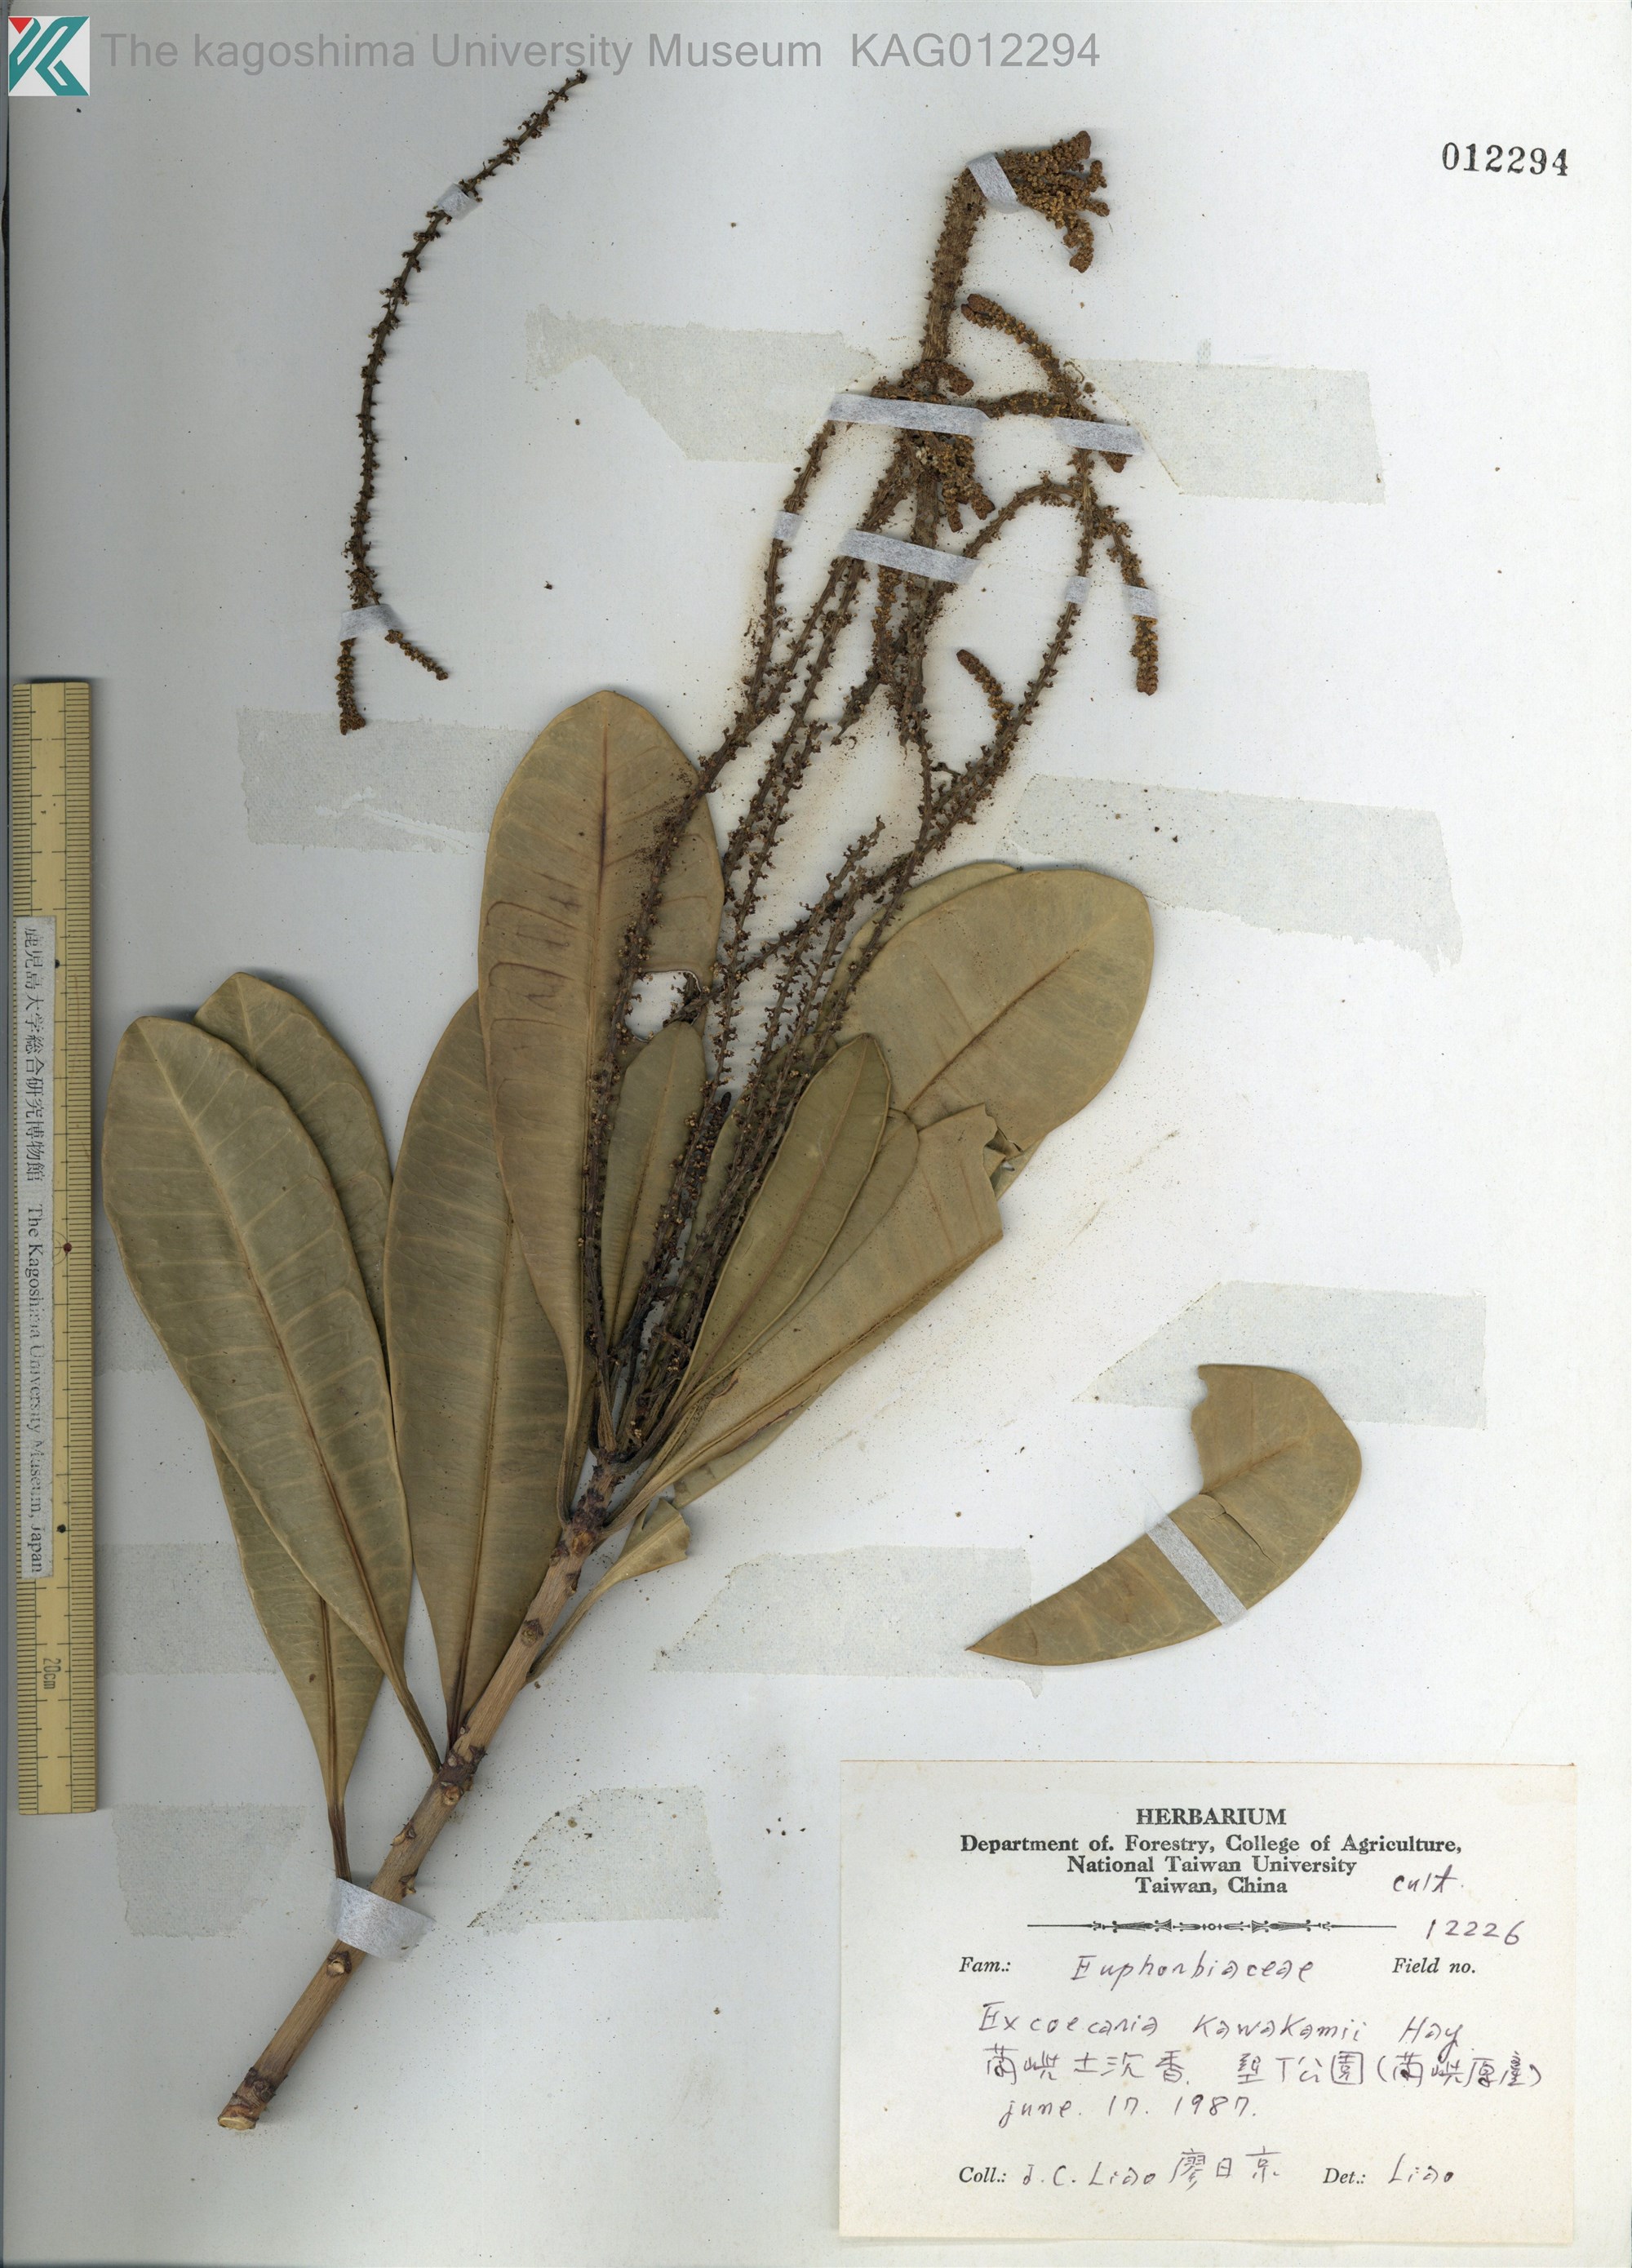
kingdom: Plantae
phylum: Tracheophyta
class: Magnoliopsida
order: Malpighiales
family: Euphorbiaceae
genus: Excoecaria
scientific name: Excoecaria kawakamii
